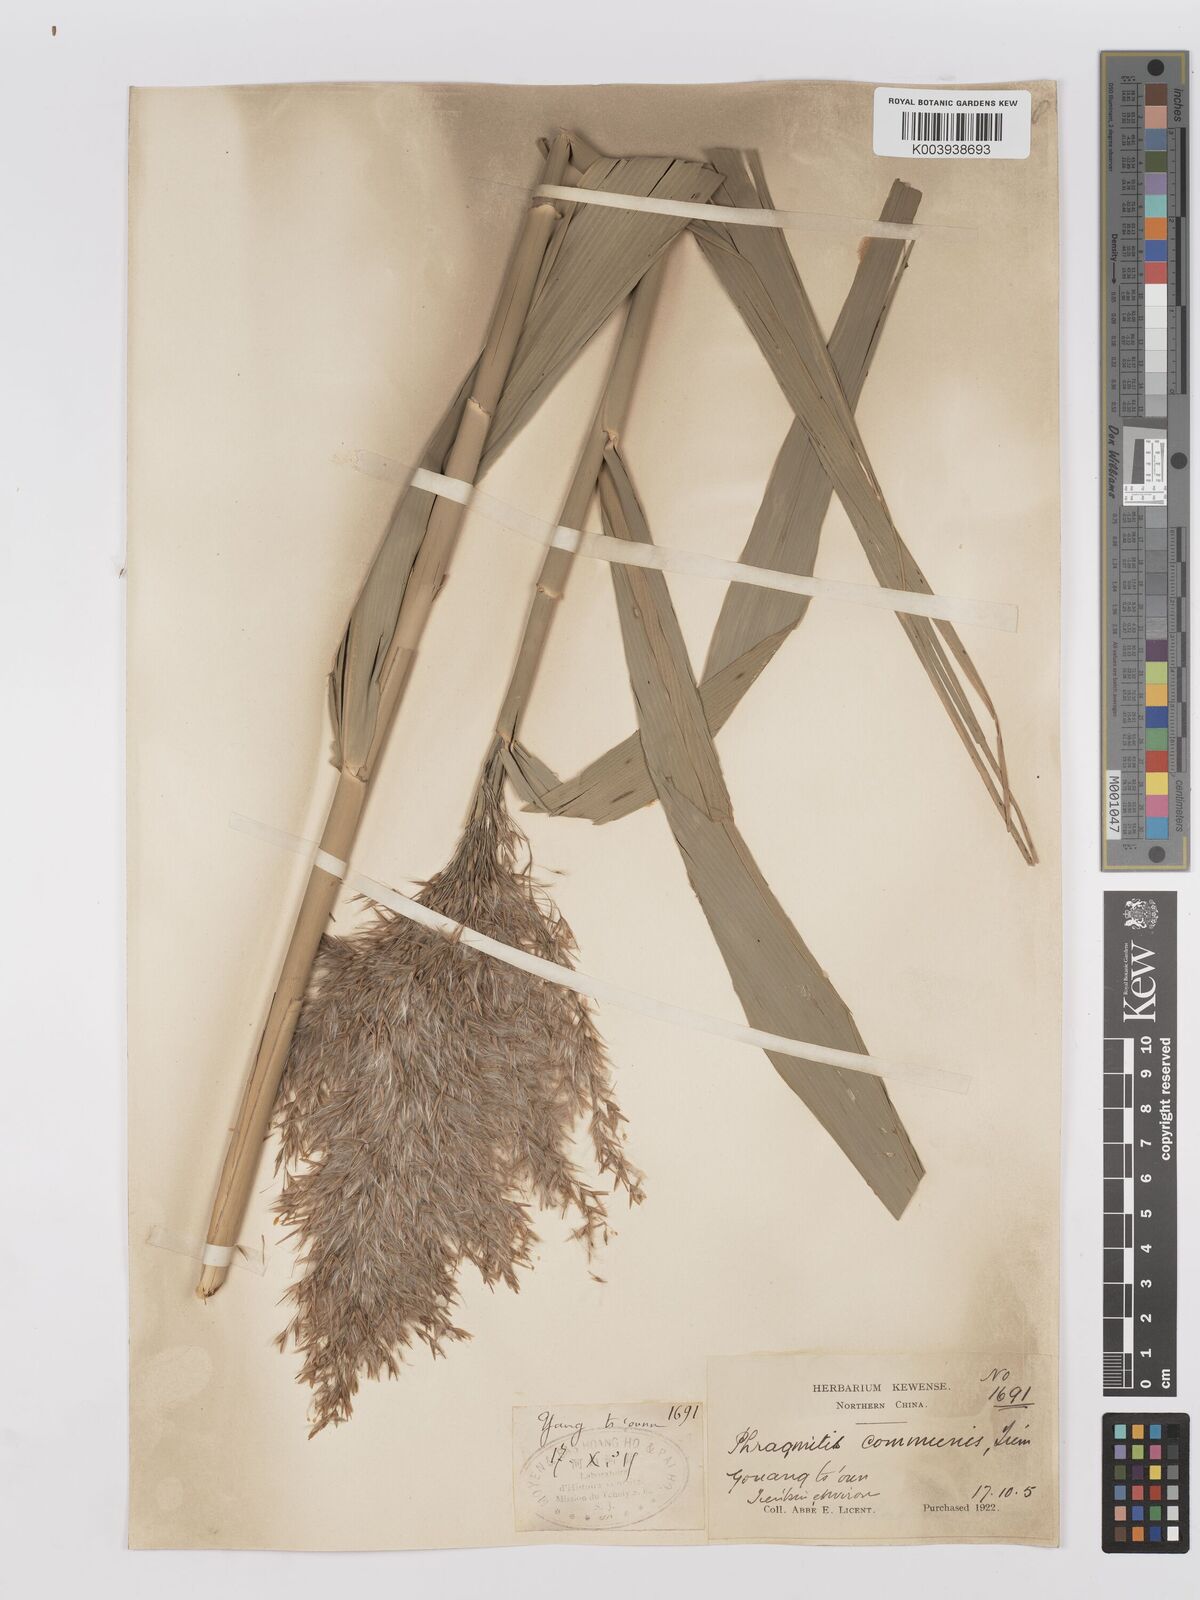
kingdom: Plantae
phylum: Tracheophyta
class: Liliopsida
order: Poales
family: Poaceae
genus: Phragmites
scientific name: Phragmites australis
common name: Common reed
